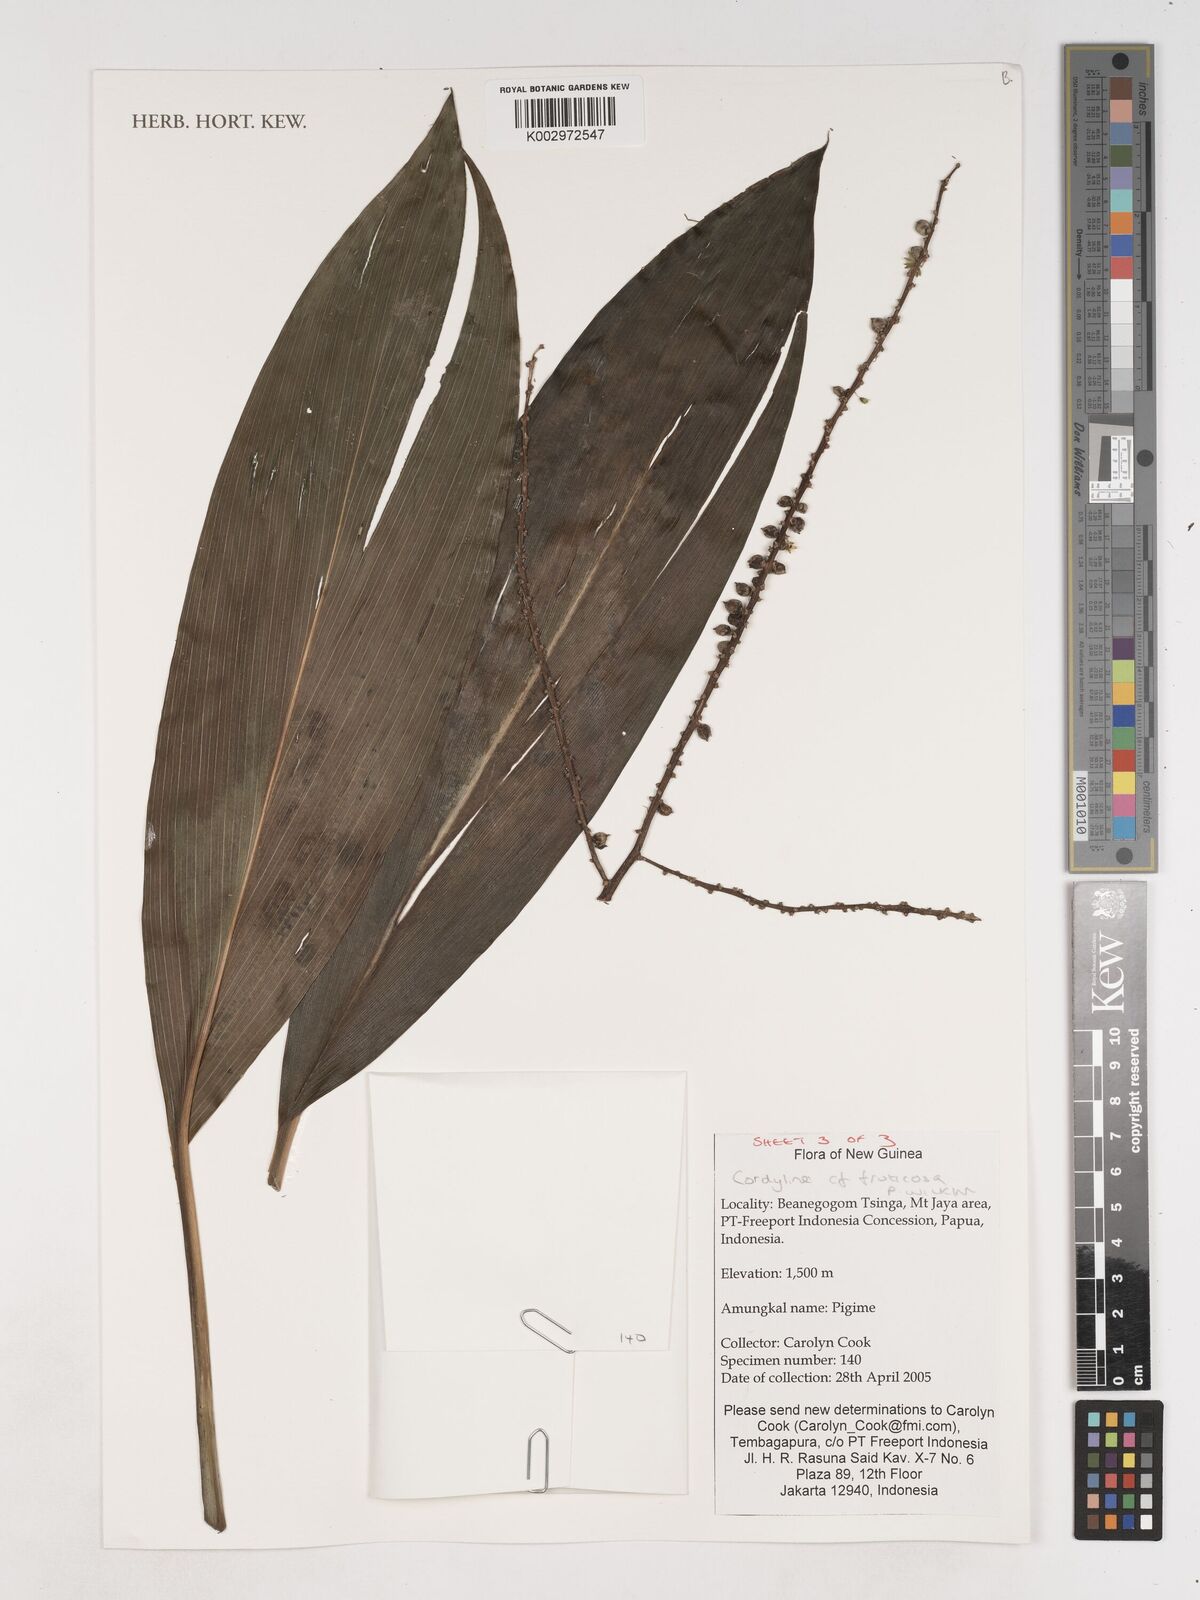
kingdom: Plantae
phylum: Tracheophyta
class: Liliopsida
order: Asparagales
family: Asparagaceae
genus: Cordyline
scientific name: Cordyline
